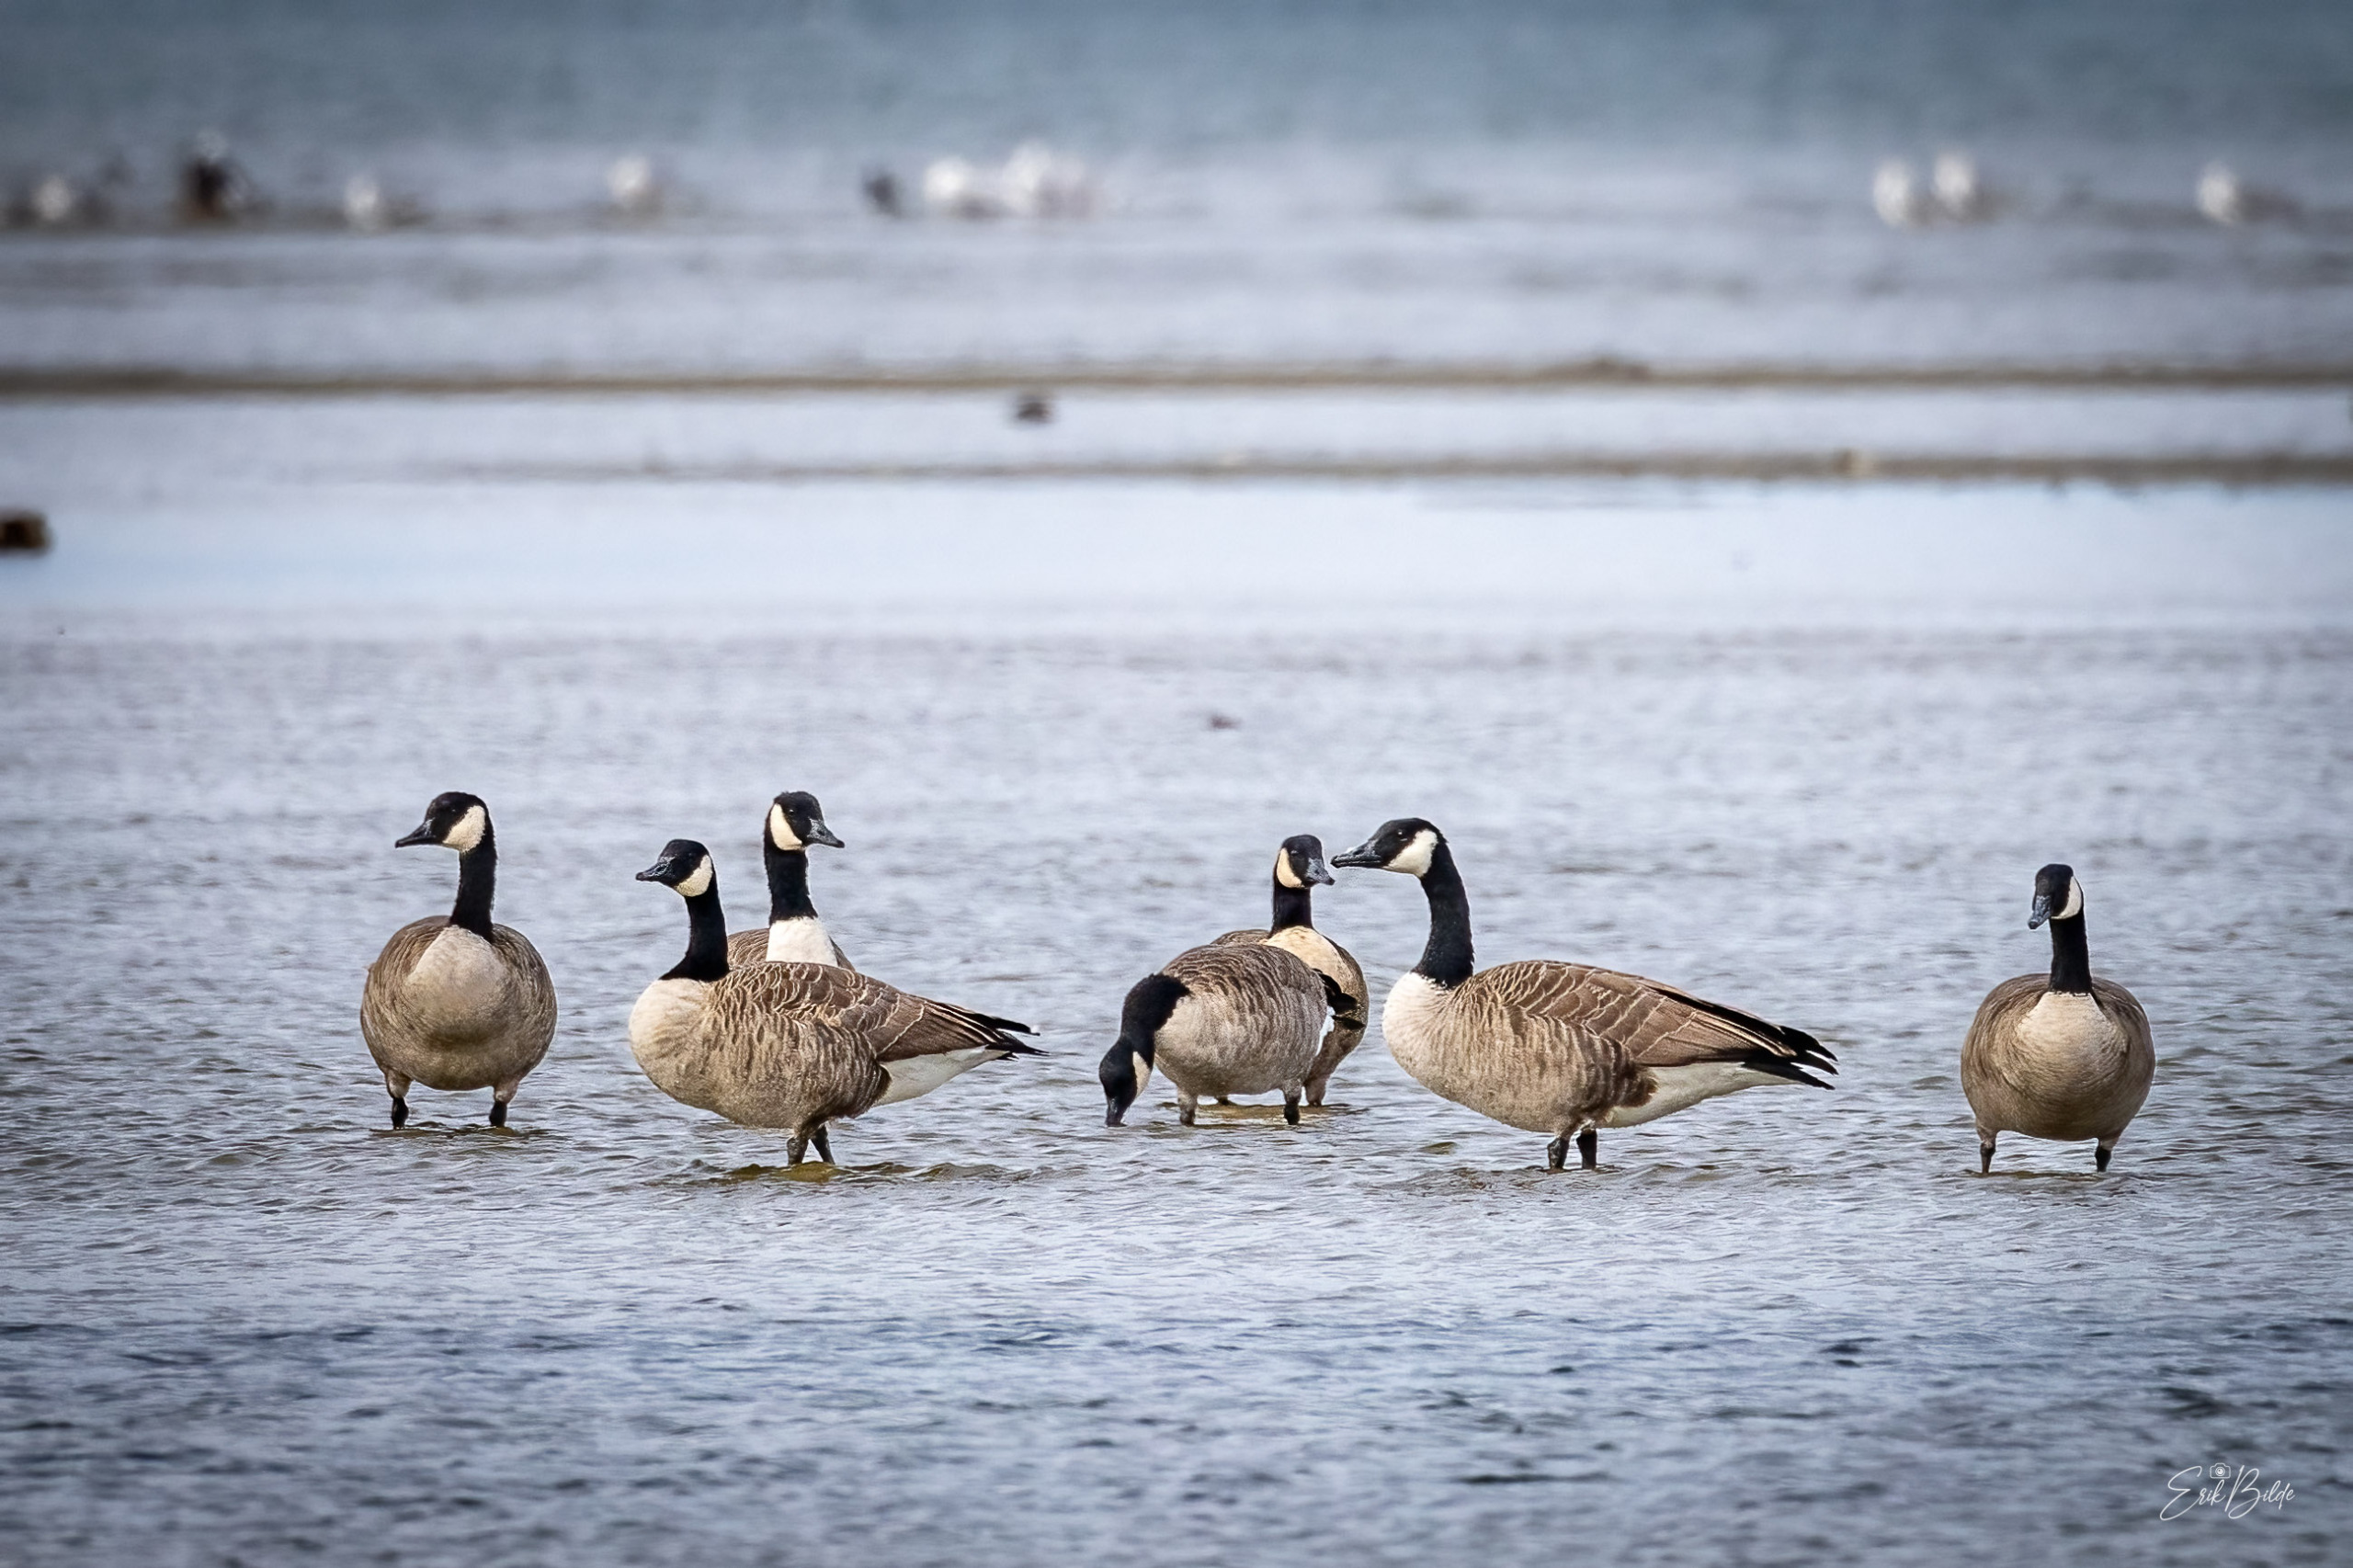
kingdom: Animalia
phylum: Chordata
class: Aves
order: Anseriformes
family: Anatidae
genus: Branta
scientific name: Branta canadensis
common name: Canadagås
